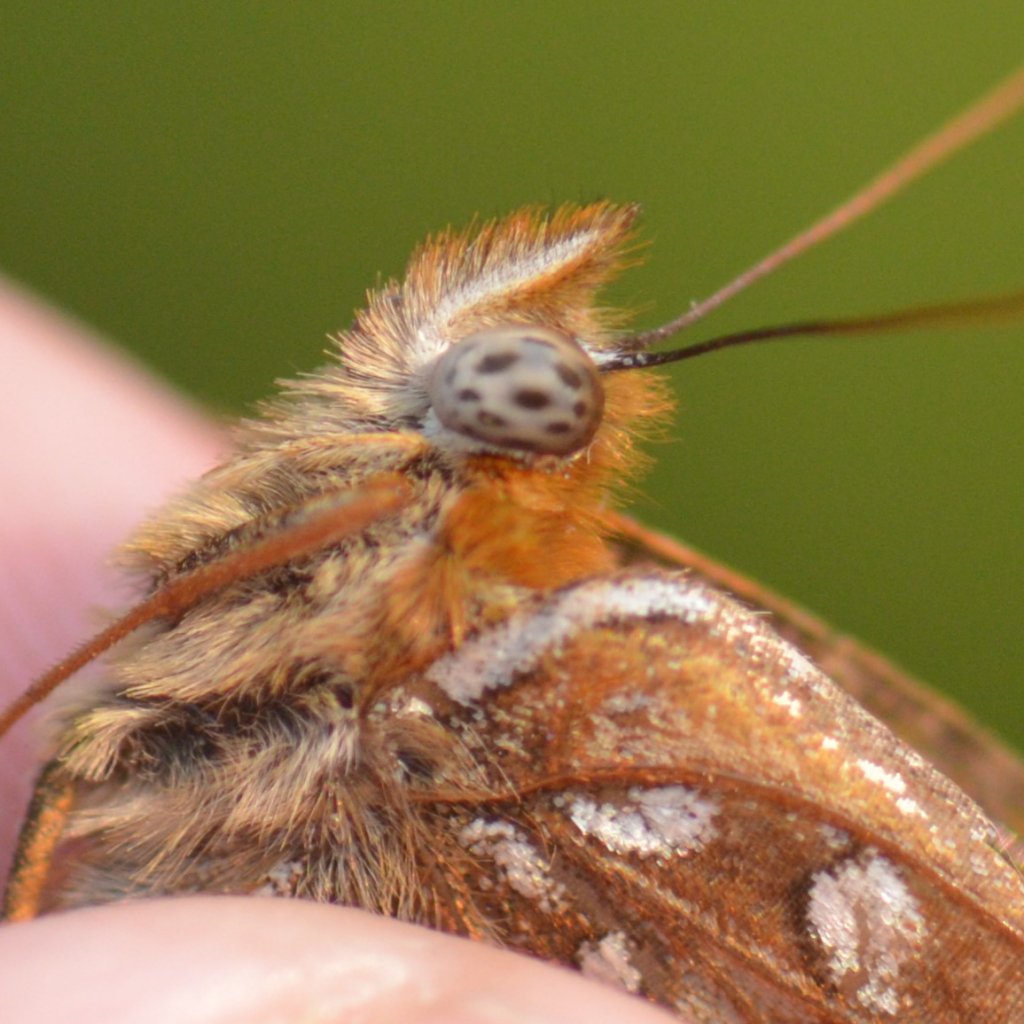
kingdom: Animalia
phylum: Arthropoda
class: Insecta
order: Lepidoptera
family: Nymphalidae
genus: Speyeria
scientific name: Speyeria atlantis
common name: Atlantis Fritillary
